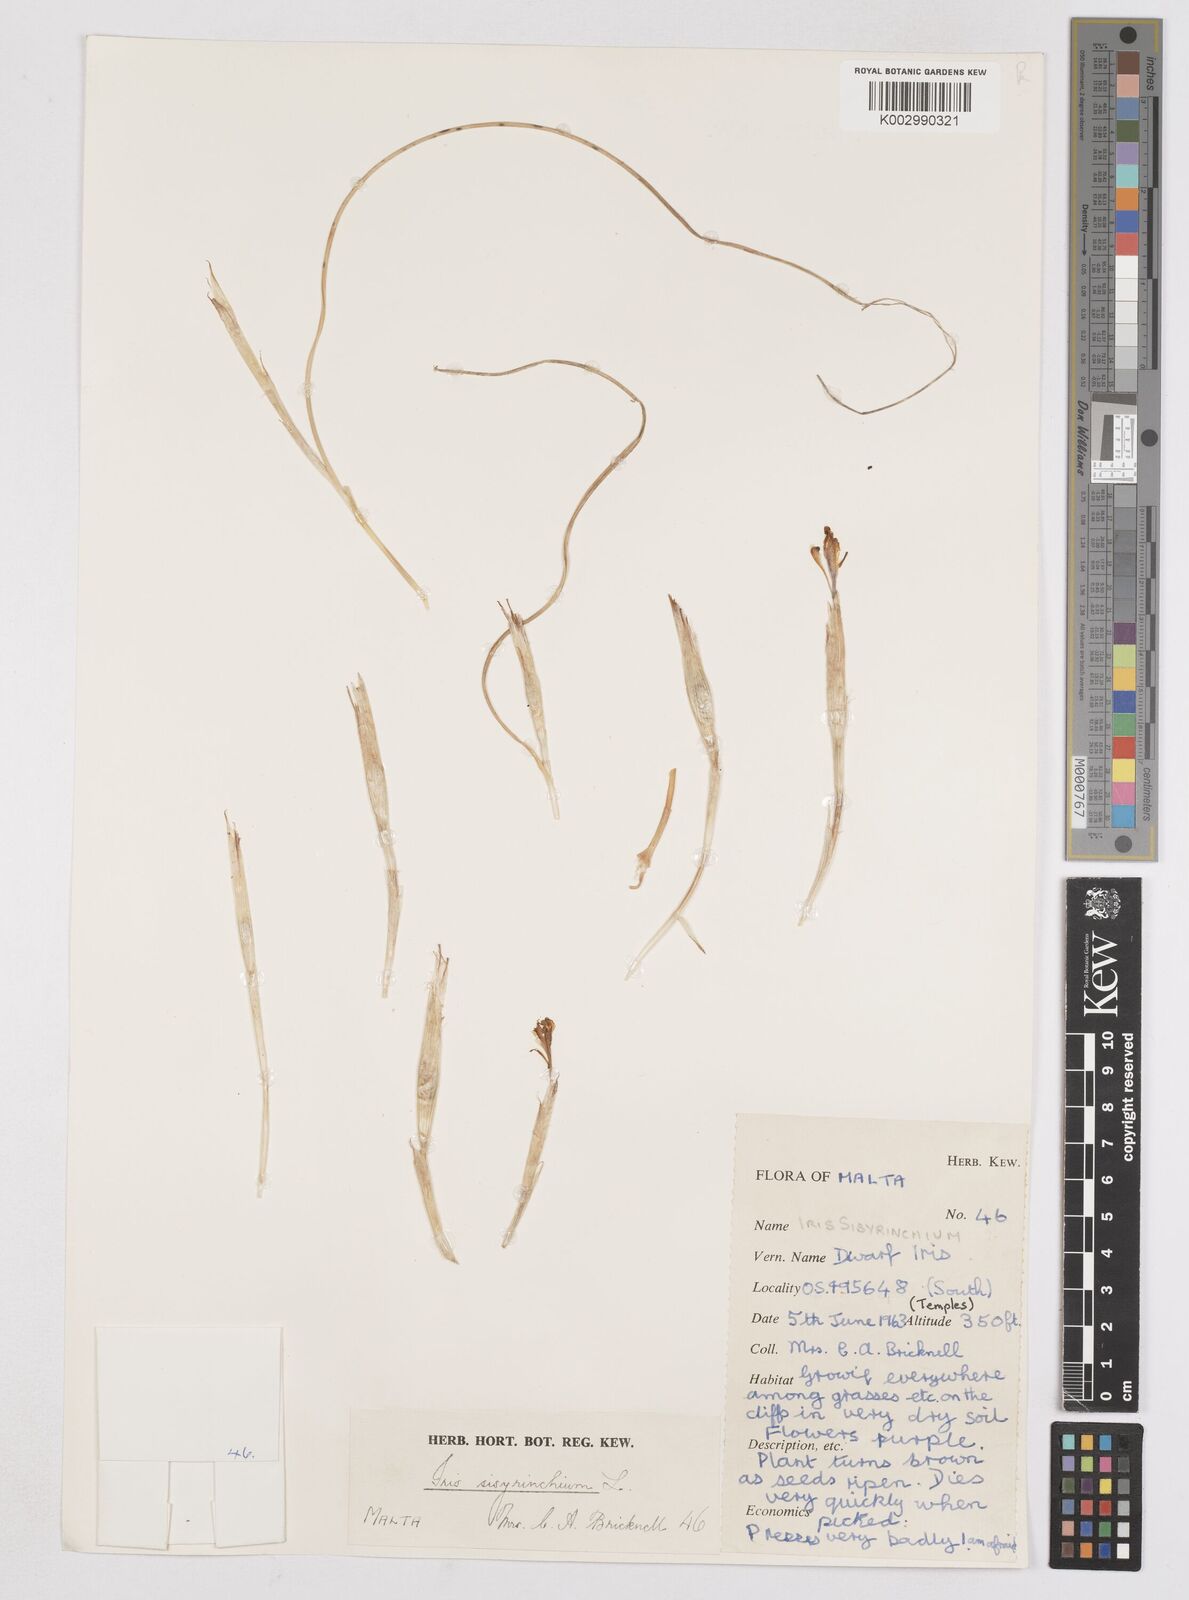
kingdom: Plantae
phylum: Tracheophyta
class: Liliopsida
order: Asparagales
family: Iridaceae
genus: Moraea
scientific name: Moraea sisyrinchium
